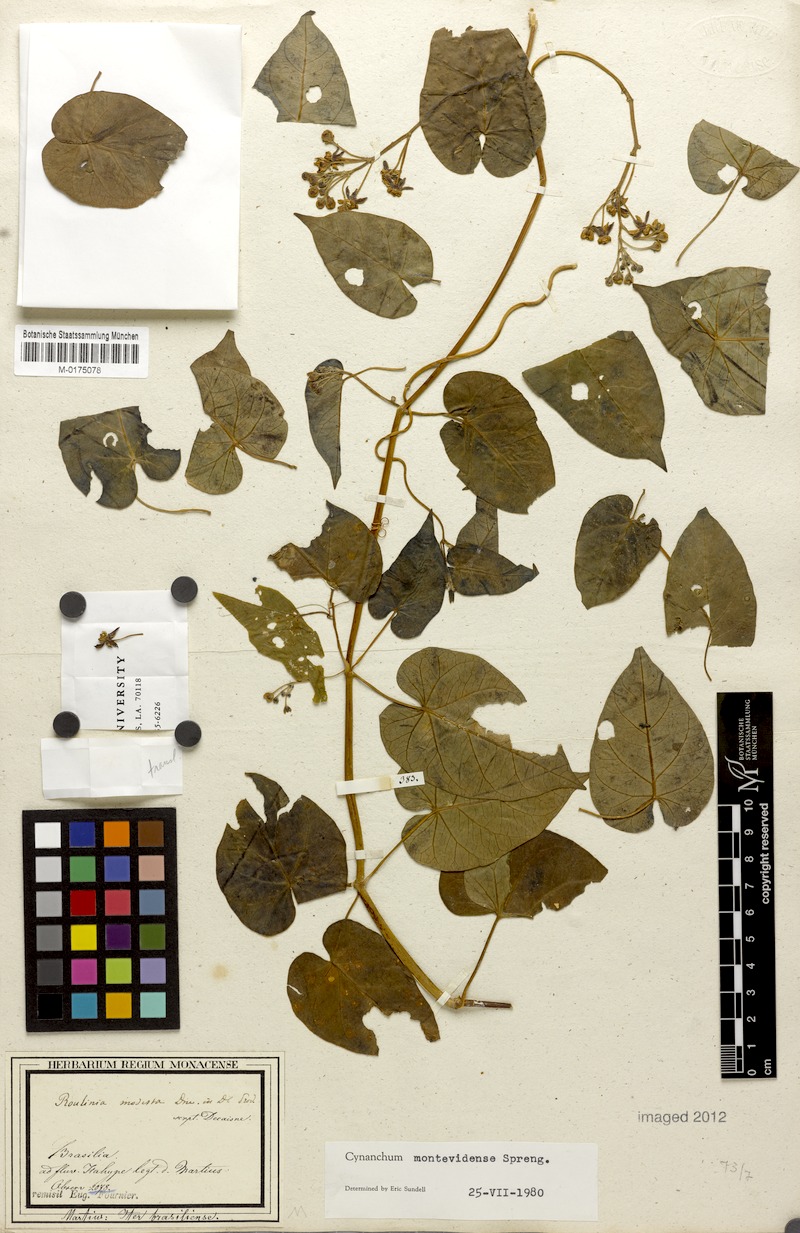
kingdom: Plantae
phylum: Tracheophyta
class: Magnoliopsida
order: Gentianales
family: Apocynaceae
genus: Cynanchum
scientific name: Cynanchum montevidense
